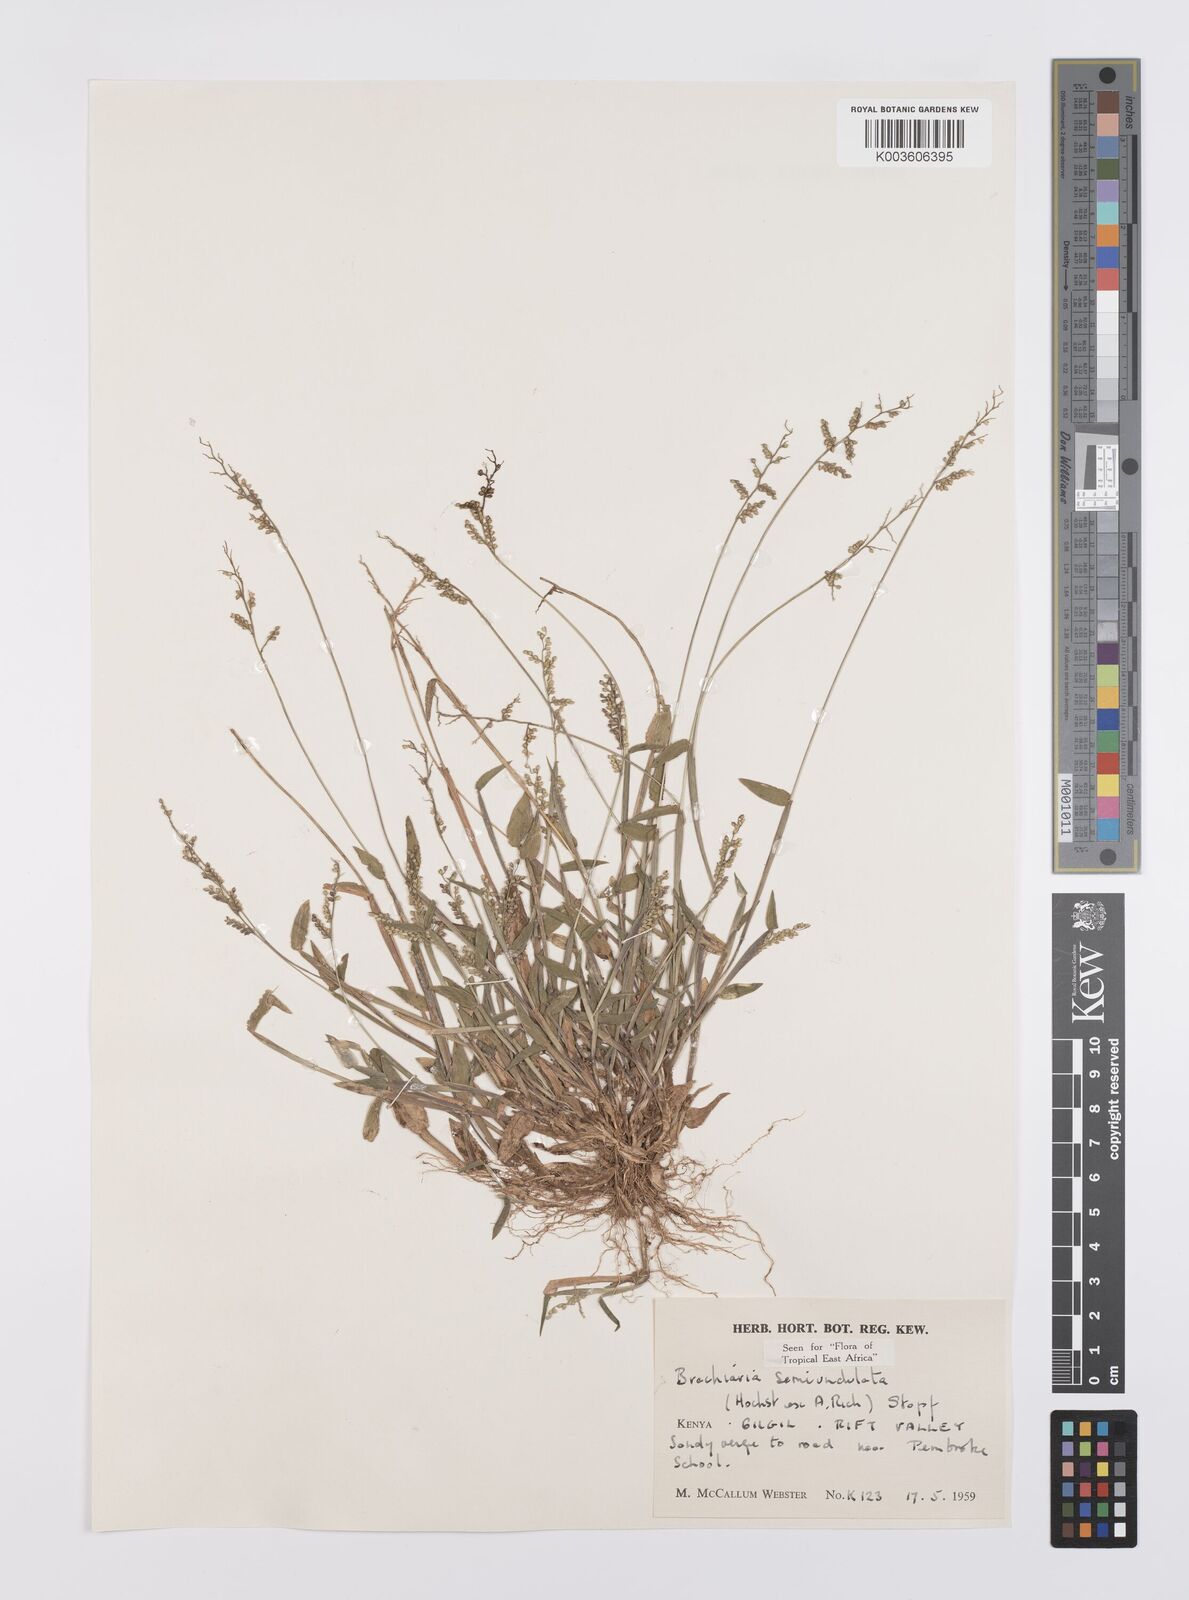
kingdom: Plantae
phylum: Tracheophyta
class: Liliopsida
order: Poales
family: Poaceae
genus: Urochloa
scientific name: Urochloa semiundulata
